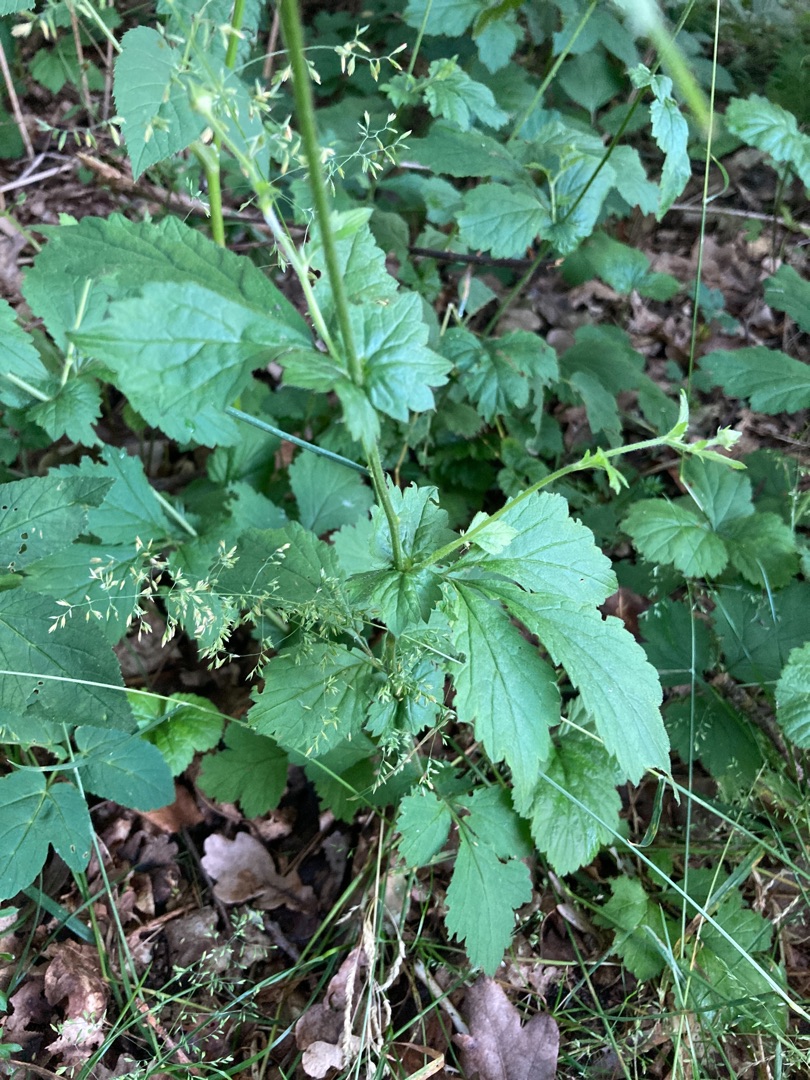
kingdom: Plantae
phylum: Tracheophyta
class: Magnoliopsida
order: Rosales
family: Rosaceae
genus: Geum
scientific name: Geum urbanum
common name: Feber-nellikerod
